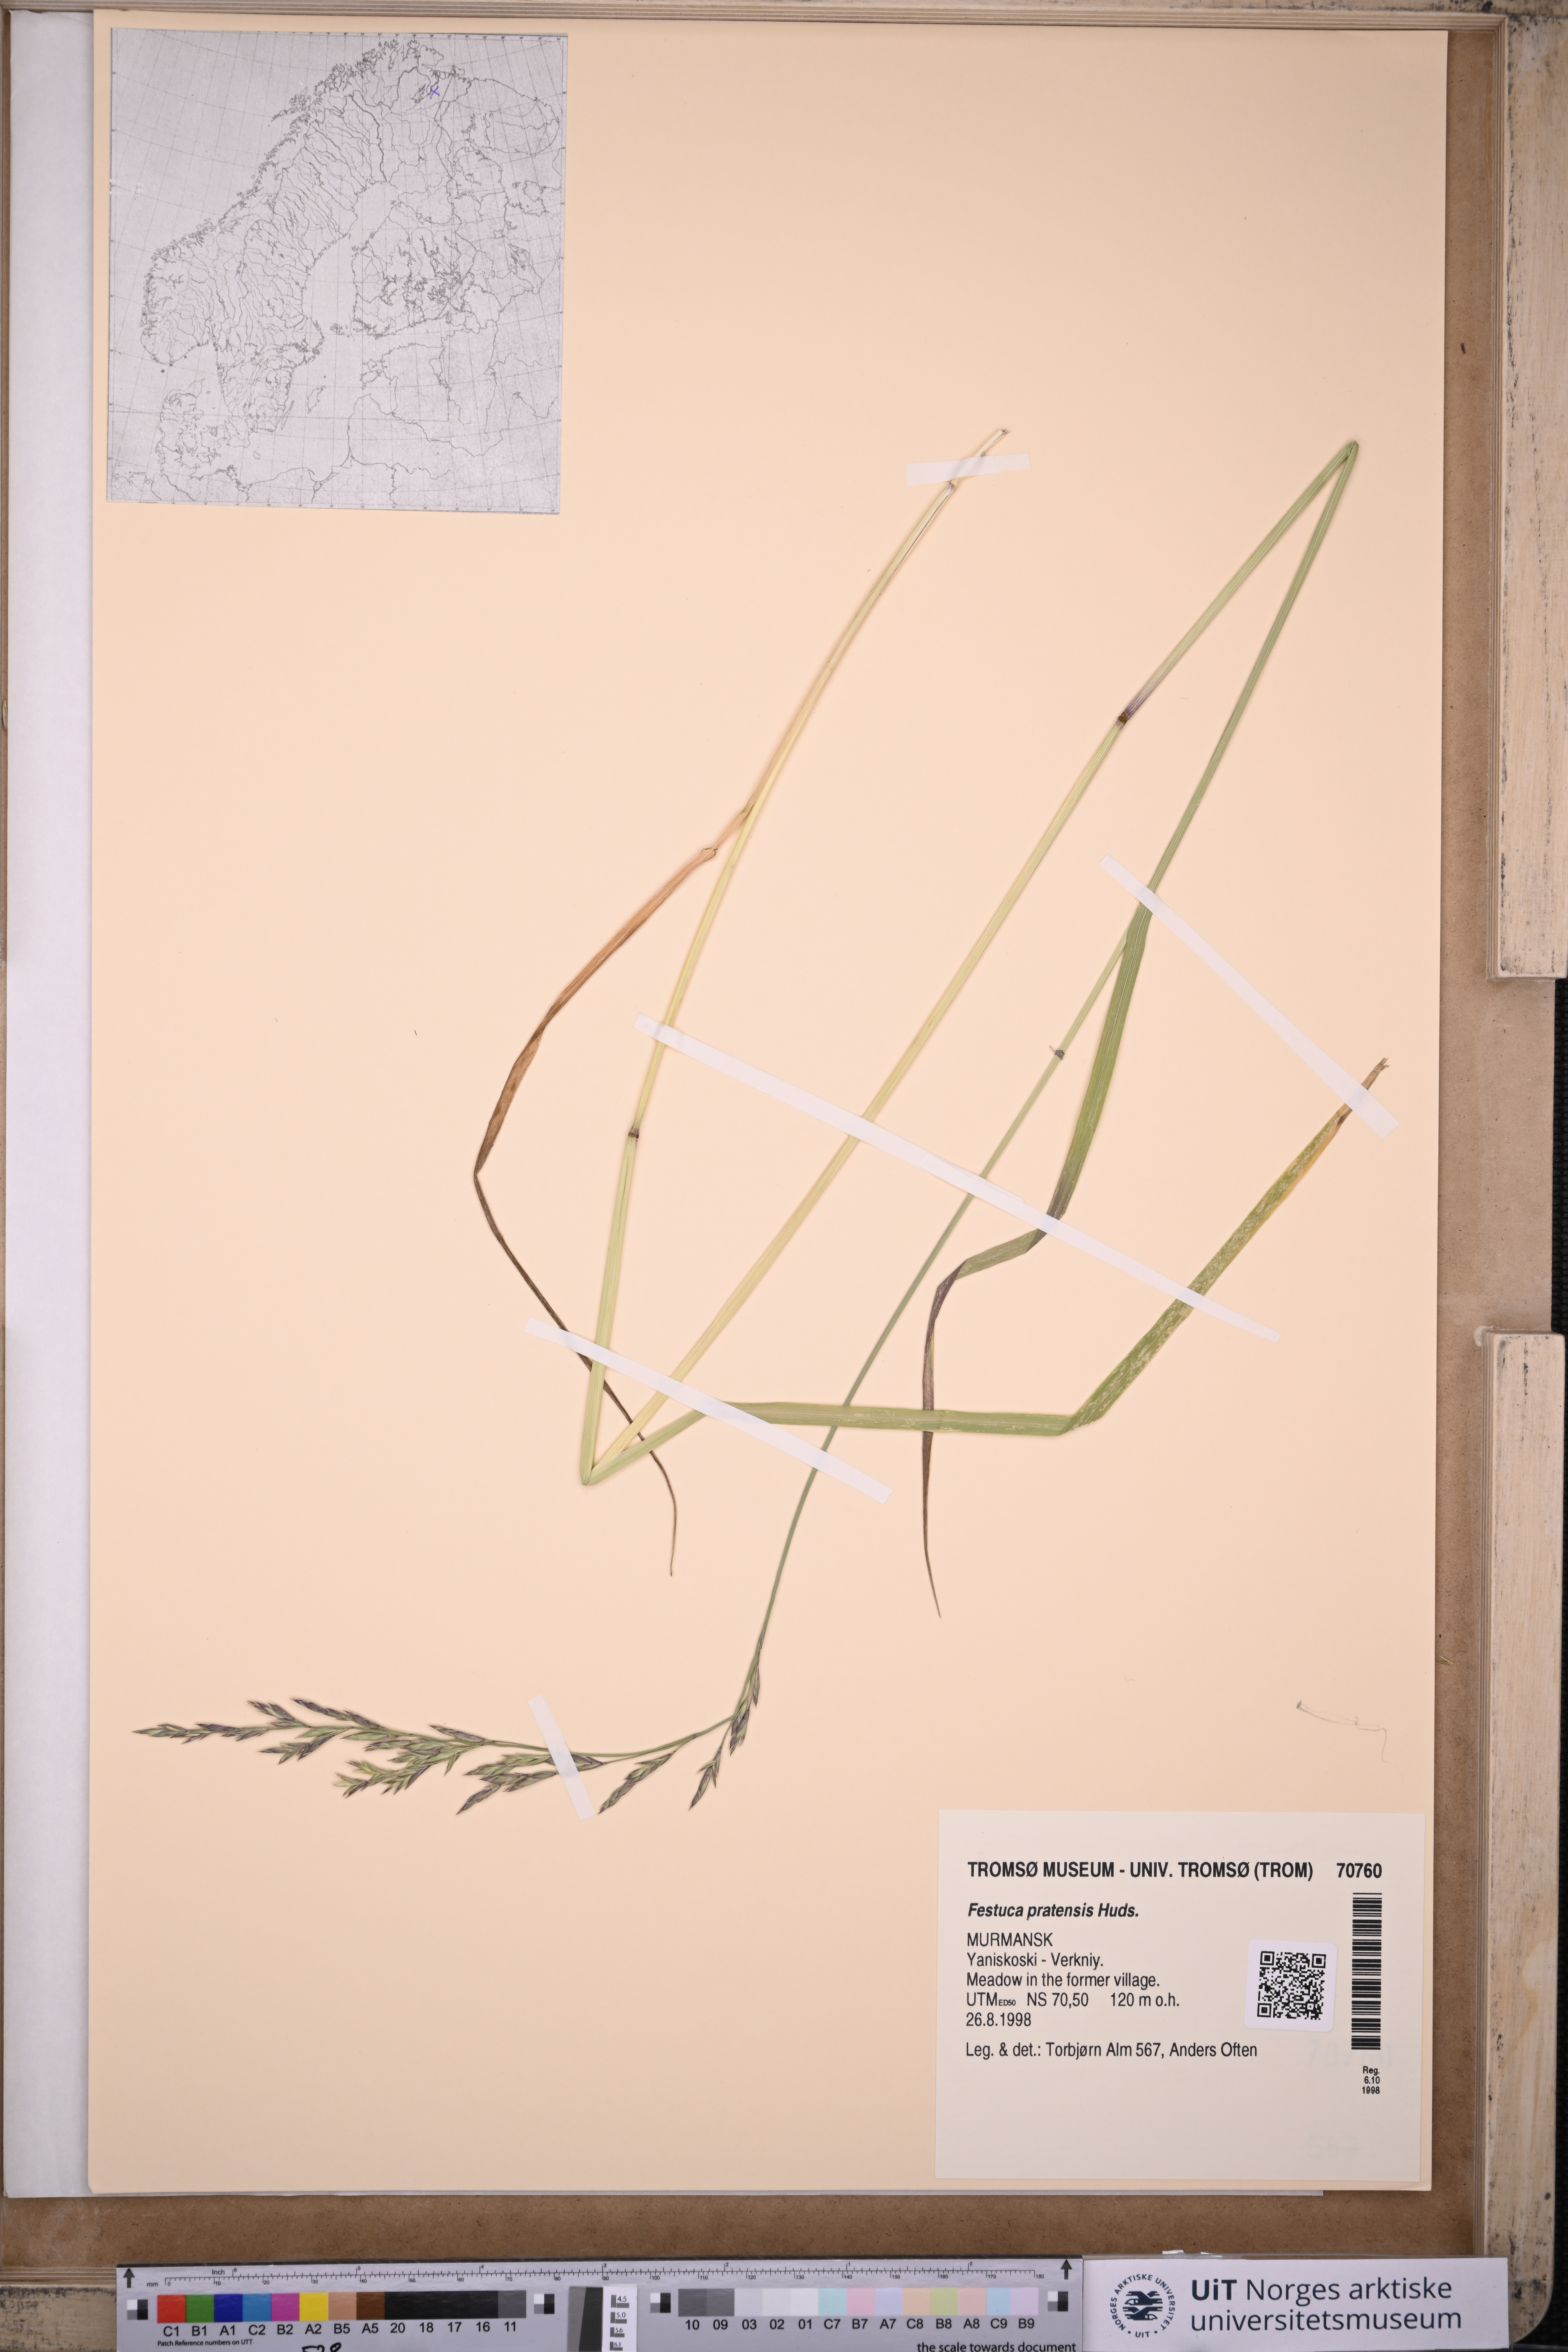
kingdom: Plantae
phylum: Tracheophyta
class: Liliopsida
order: Poales
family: Poaceae
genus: Lolium
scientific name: Lolium pratense
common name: Dover grass
